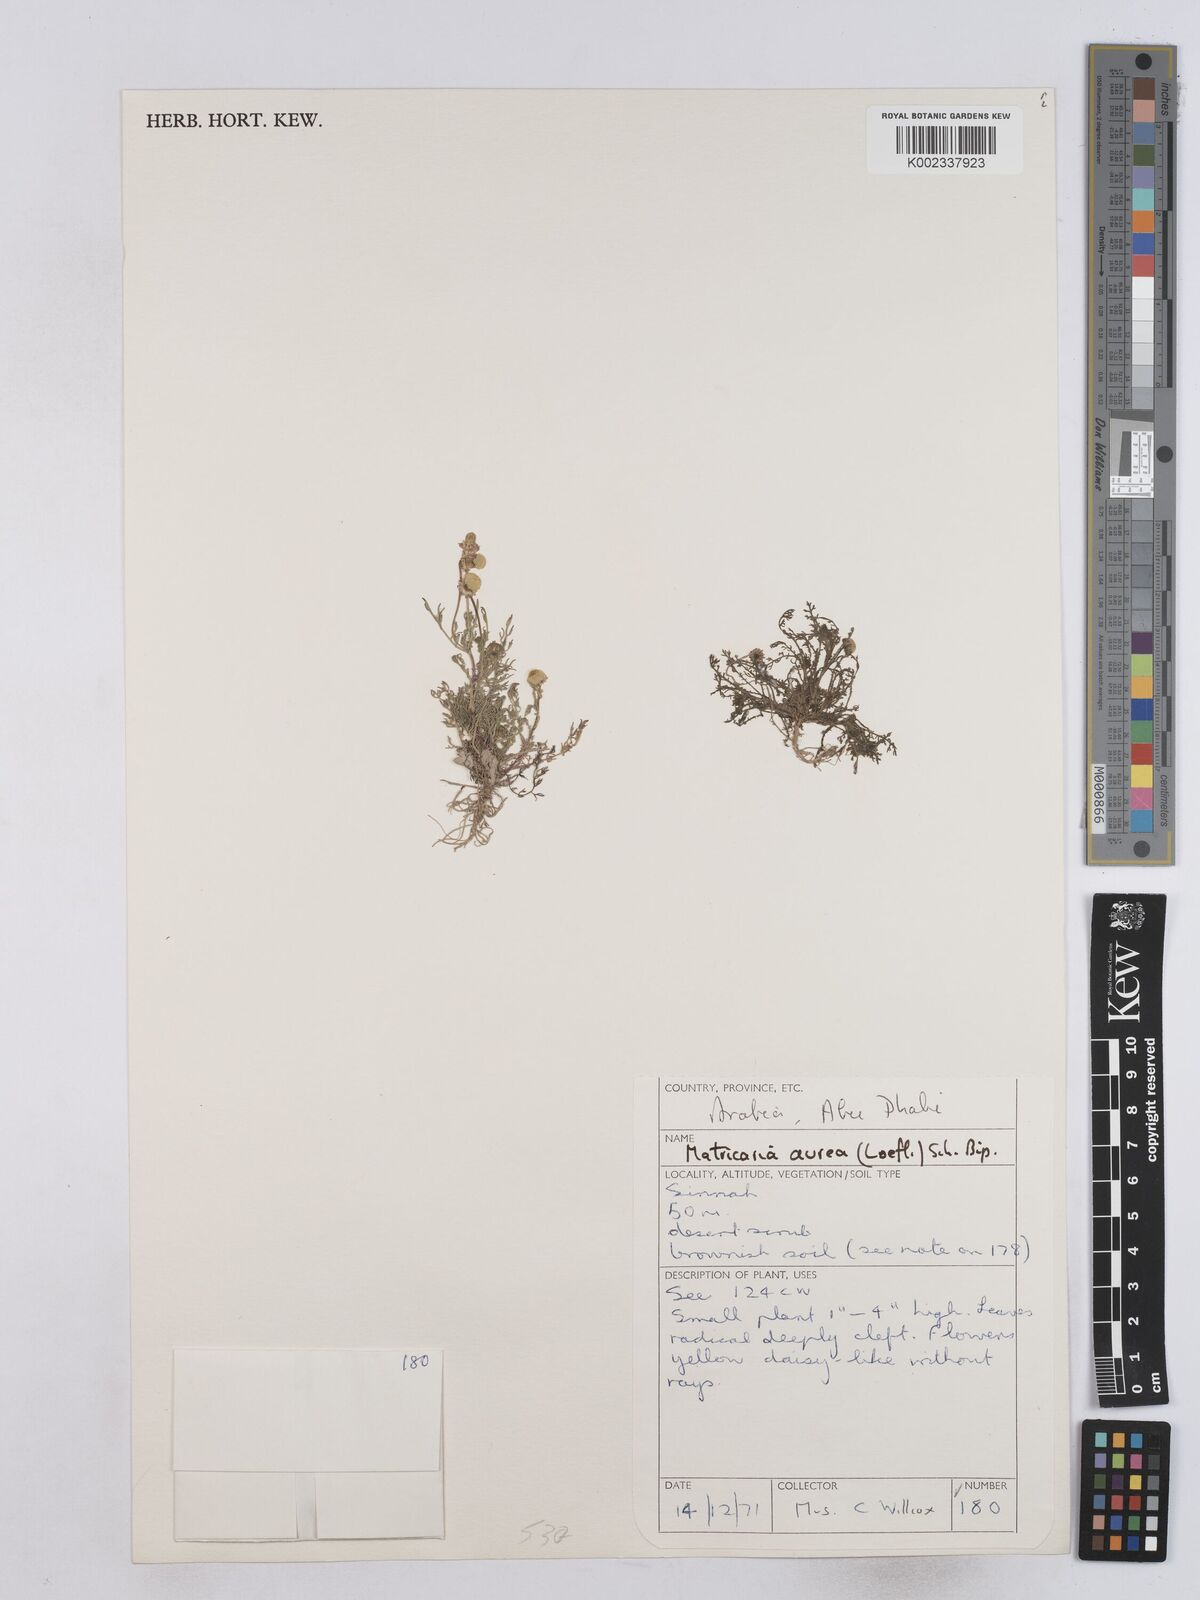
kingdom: Plantae
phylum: Tracheophyta
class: Magnoliopsida
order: Asterales
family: Asteraceae
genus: Matricaria
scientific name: Matricaria aurea
